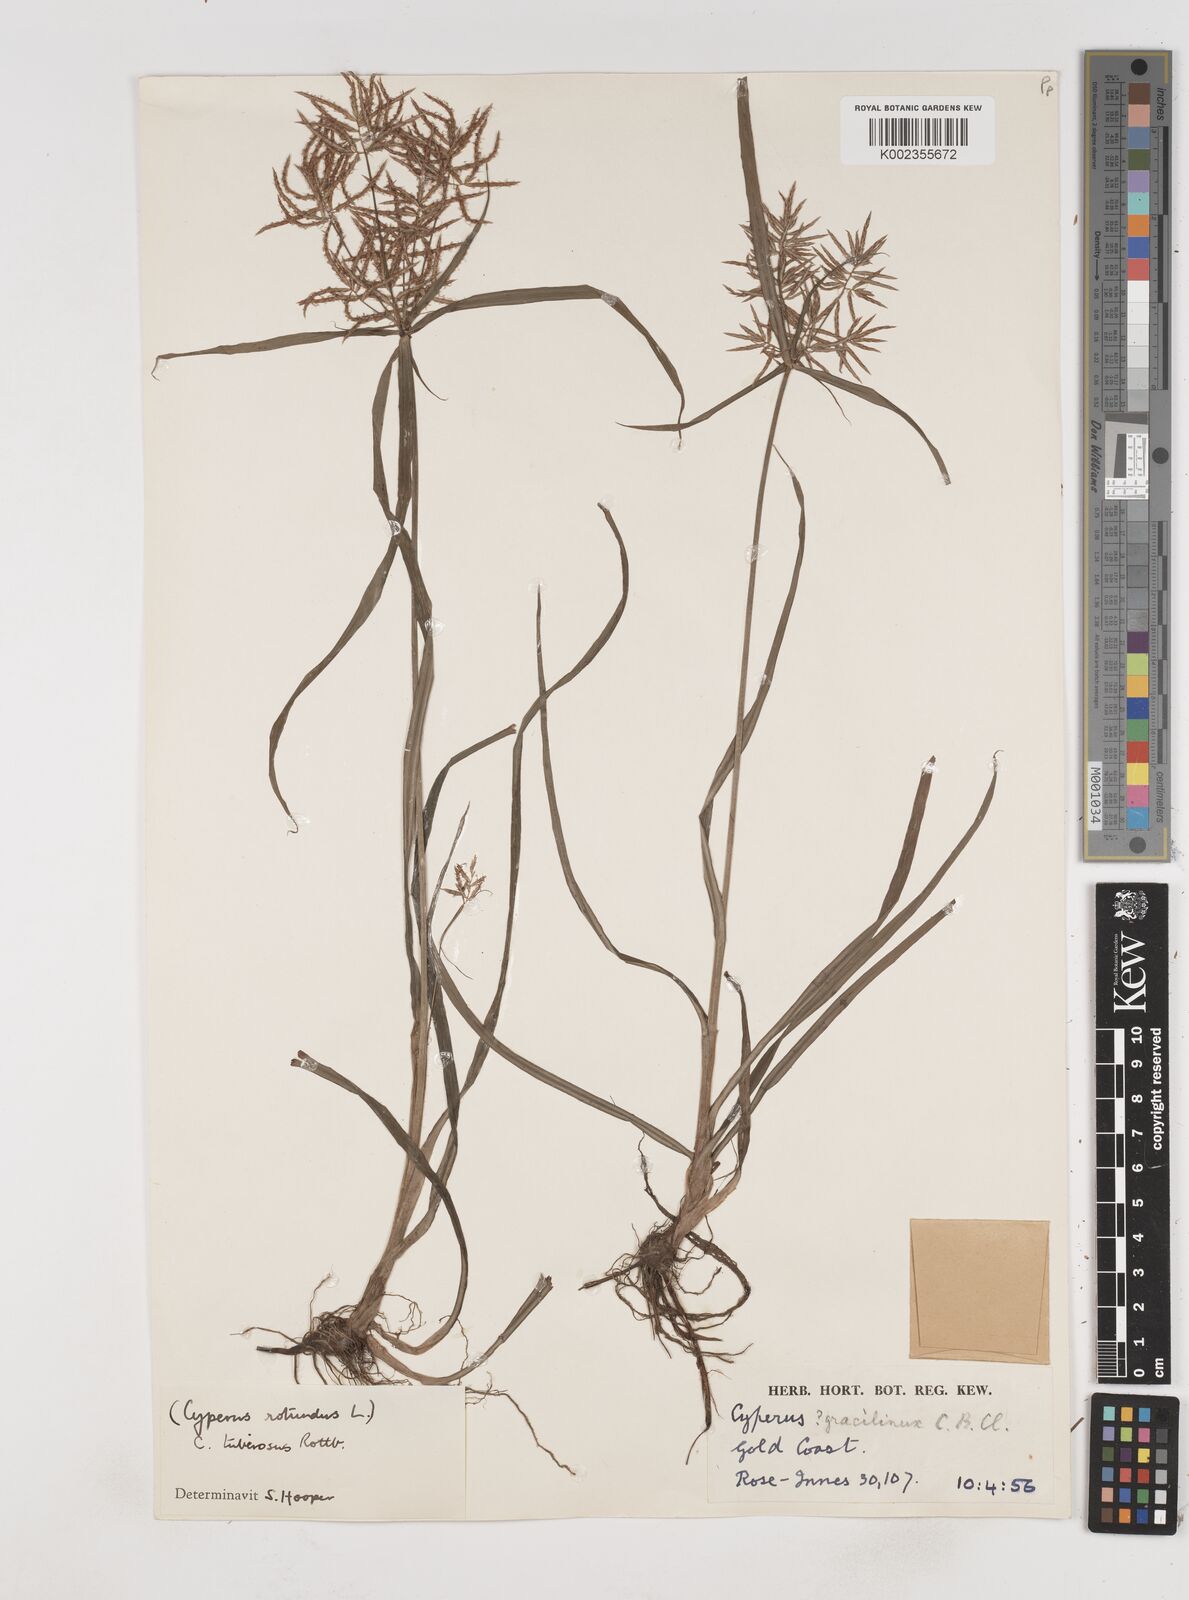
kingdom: Plantae
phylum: Tracheophyta
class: Liliopsida
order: Poales
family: Cyperaceae
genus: Cyperus
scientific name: Cyperus tuberosus
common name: Nut grass
